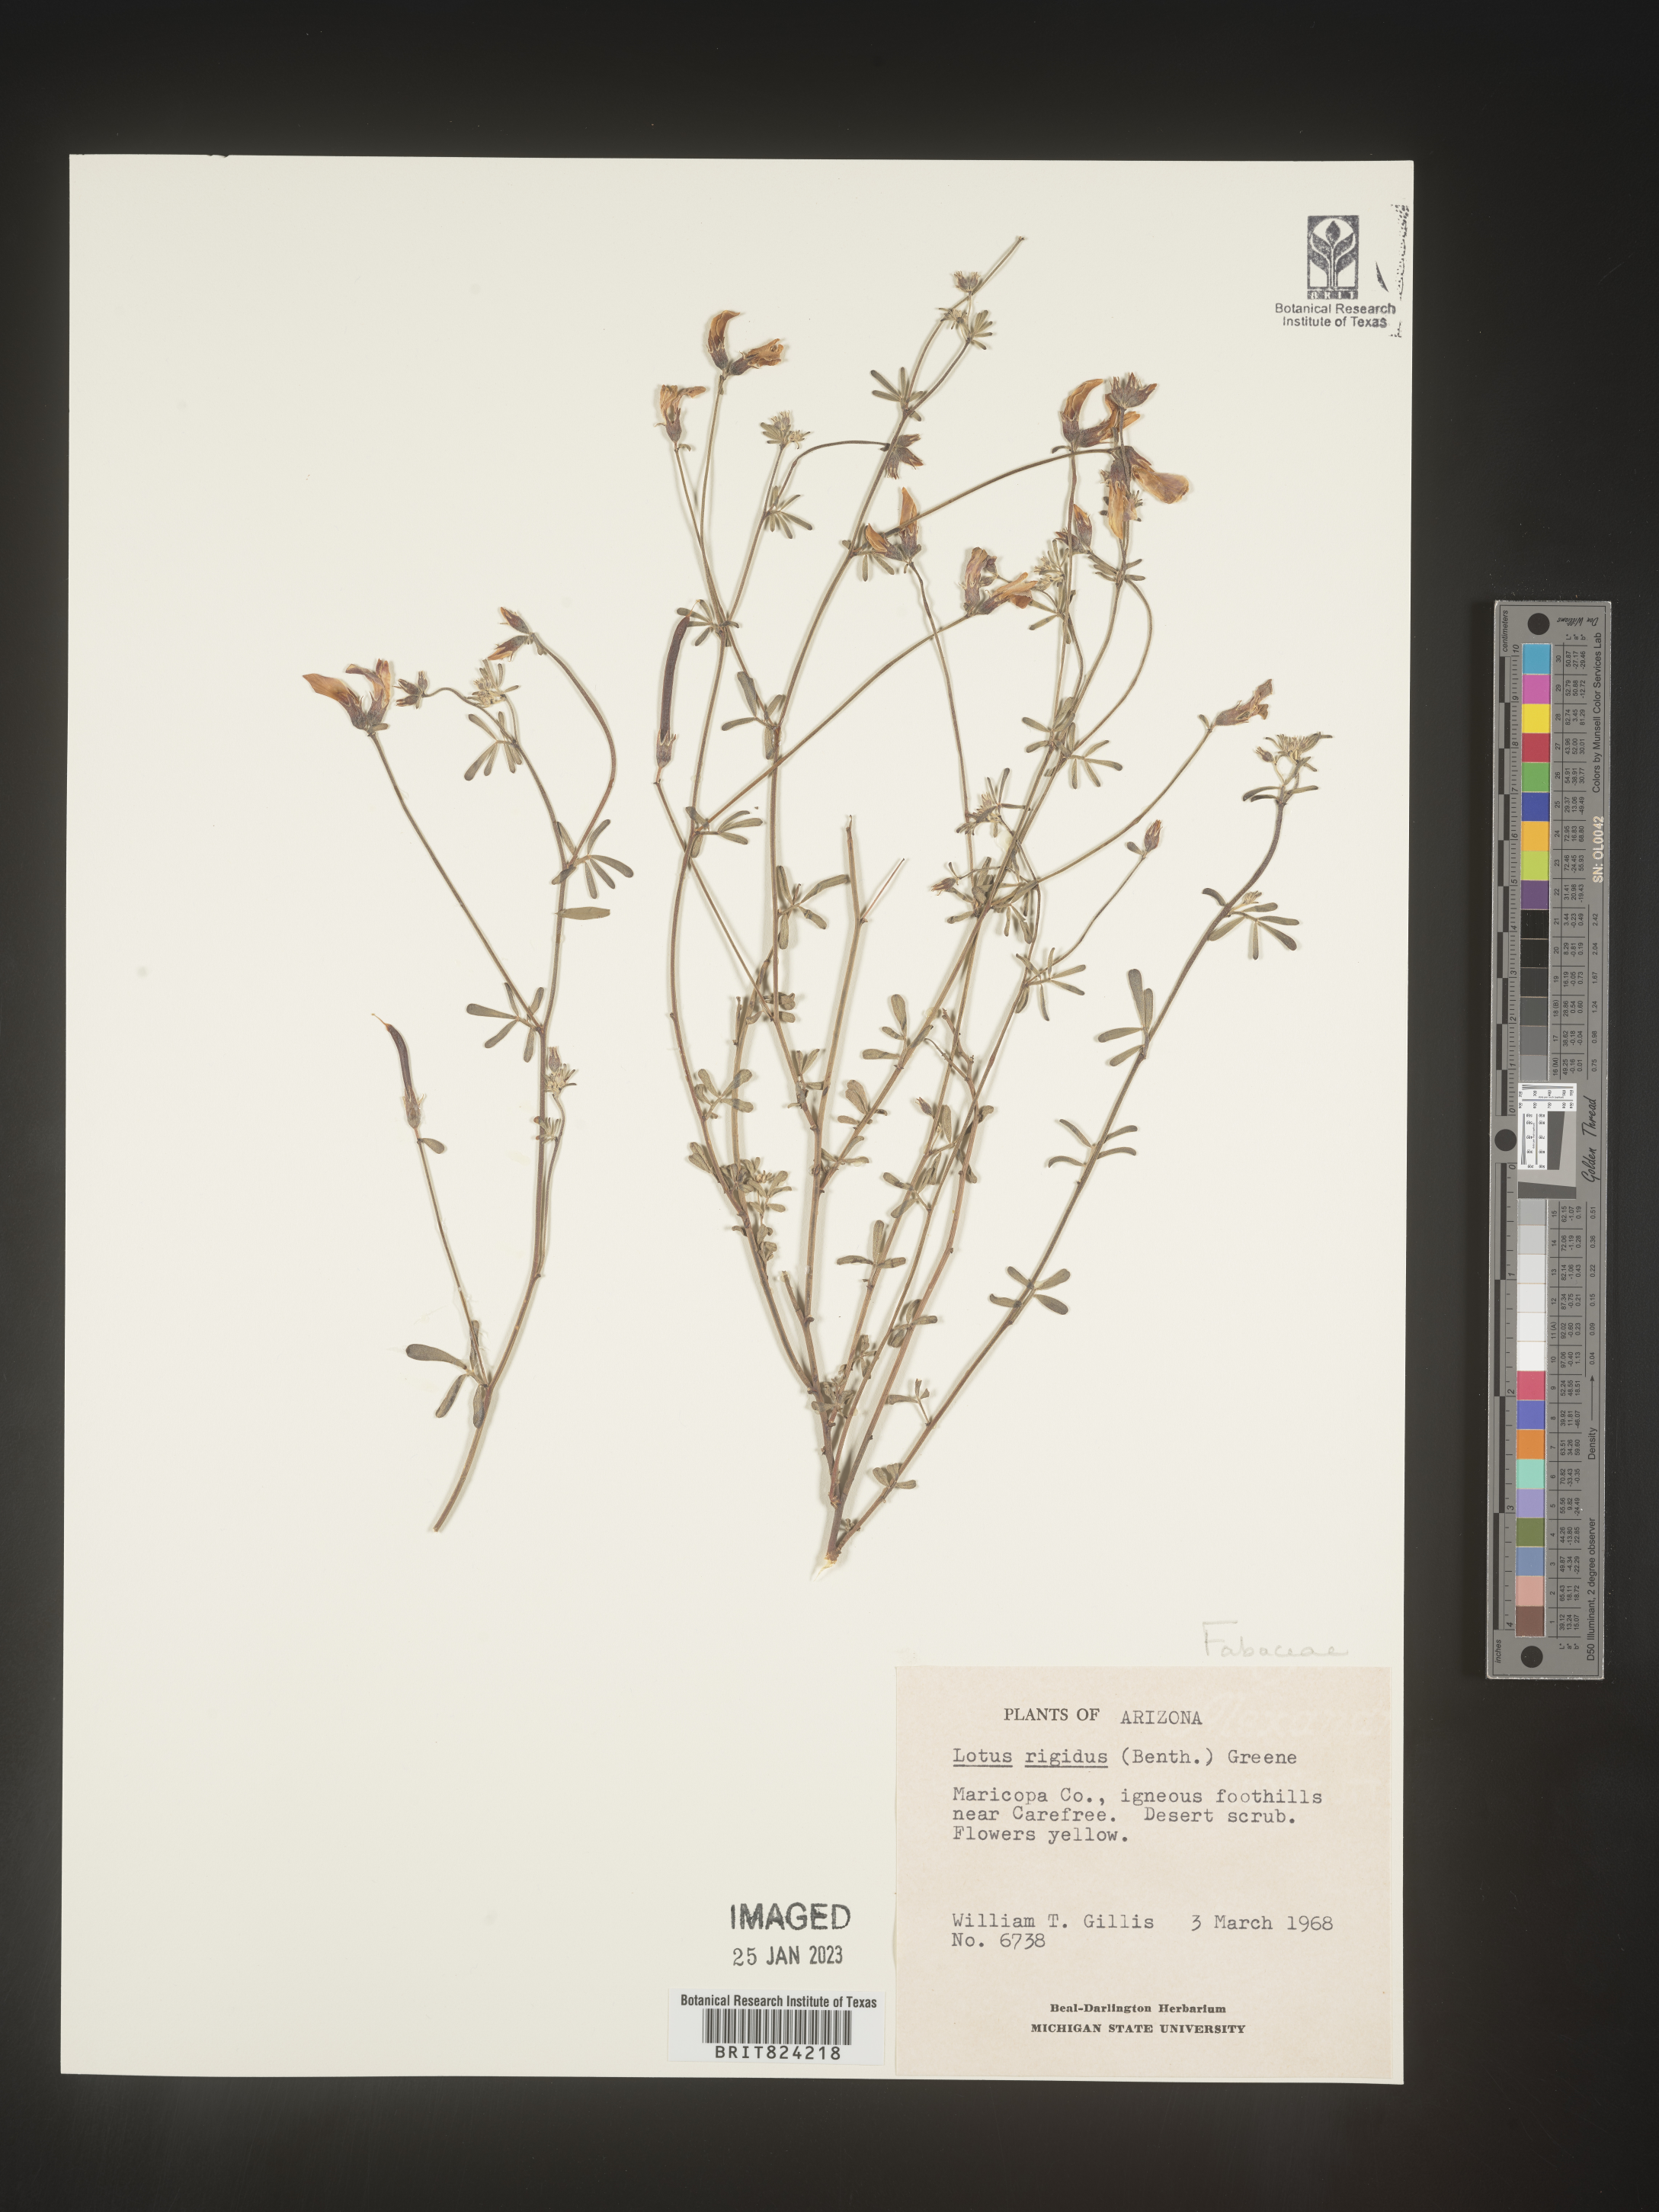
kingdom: Plantae
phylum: Tracheophyta
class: Magnoliopsida
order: Fabales
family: Fabaceae
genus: Lotus
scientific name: Lotus
